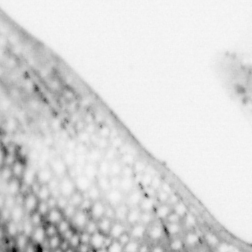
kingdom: Animalia
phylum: Chordata
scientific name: Chordata
